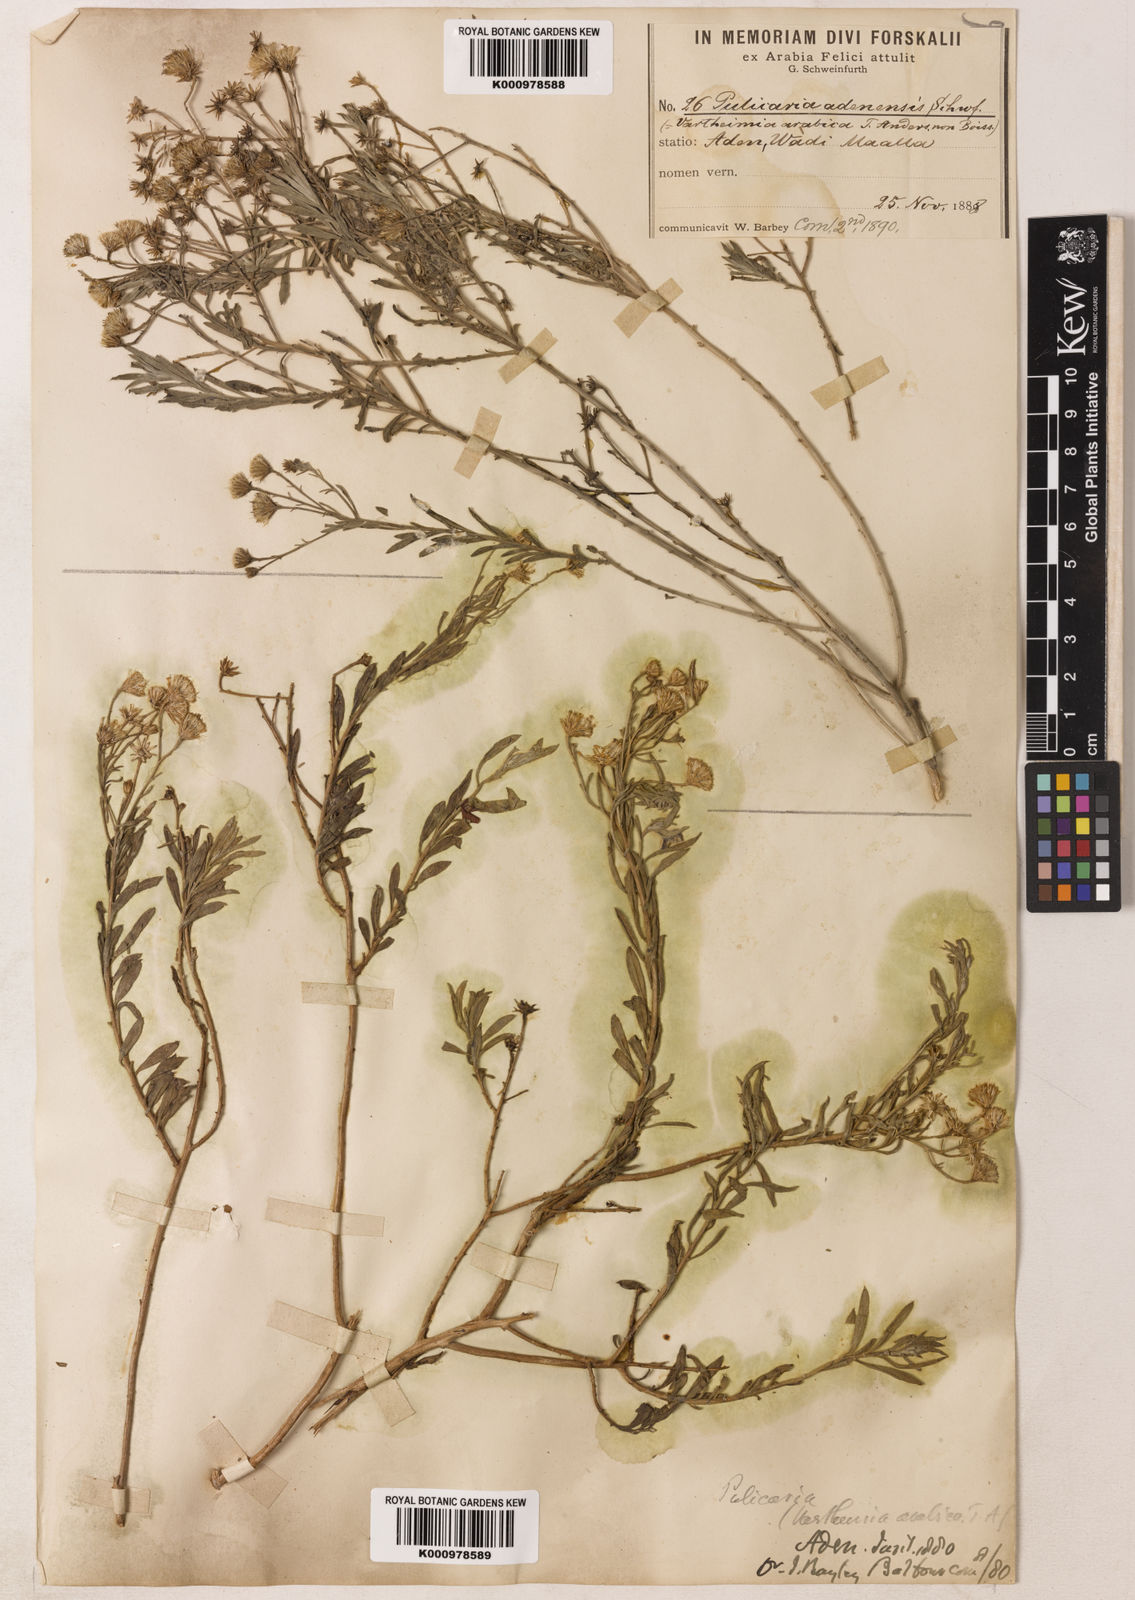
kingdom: Plantae
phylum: Tracheophyta
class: Magnoliopsida
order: Asterales
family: Asteraceae
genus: Pulicaria
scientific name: Pulicaria
